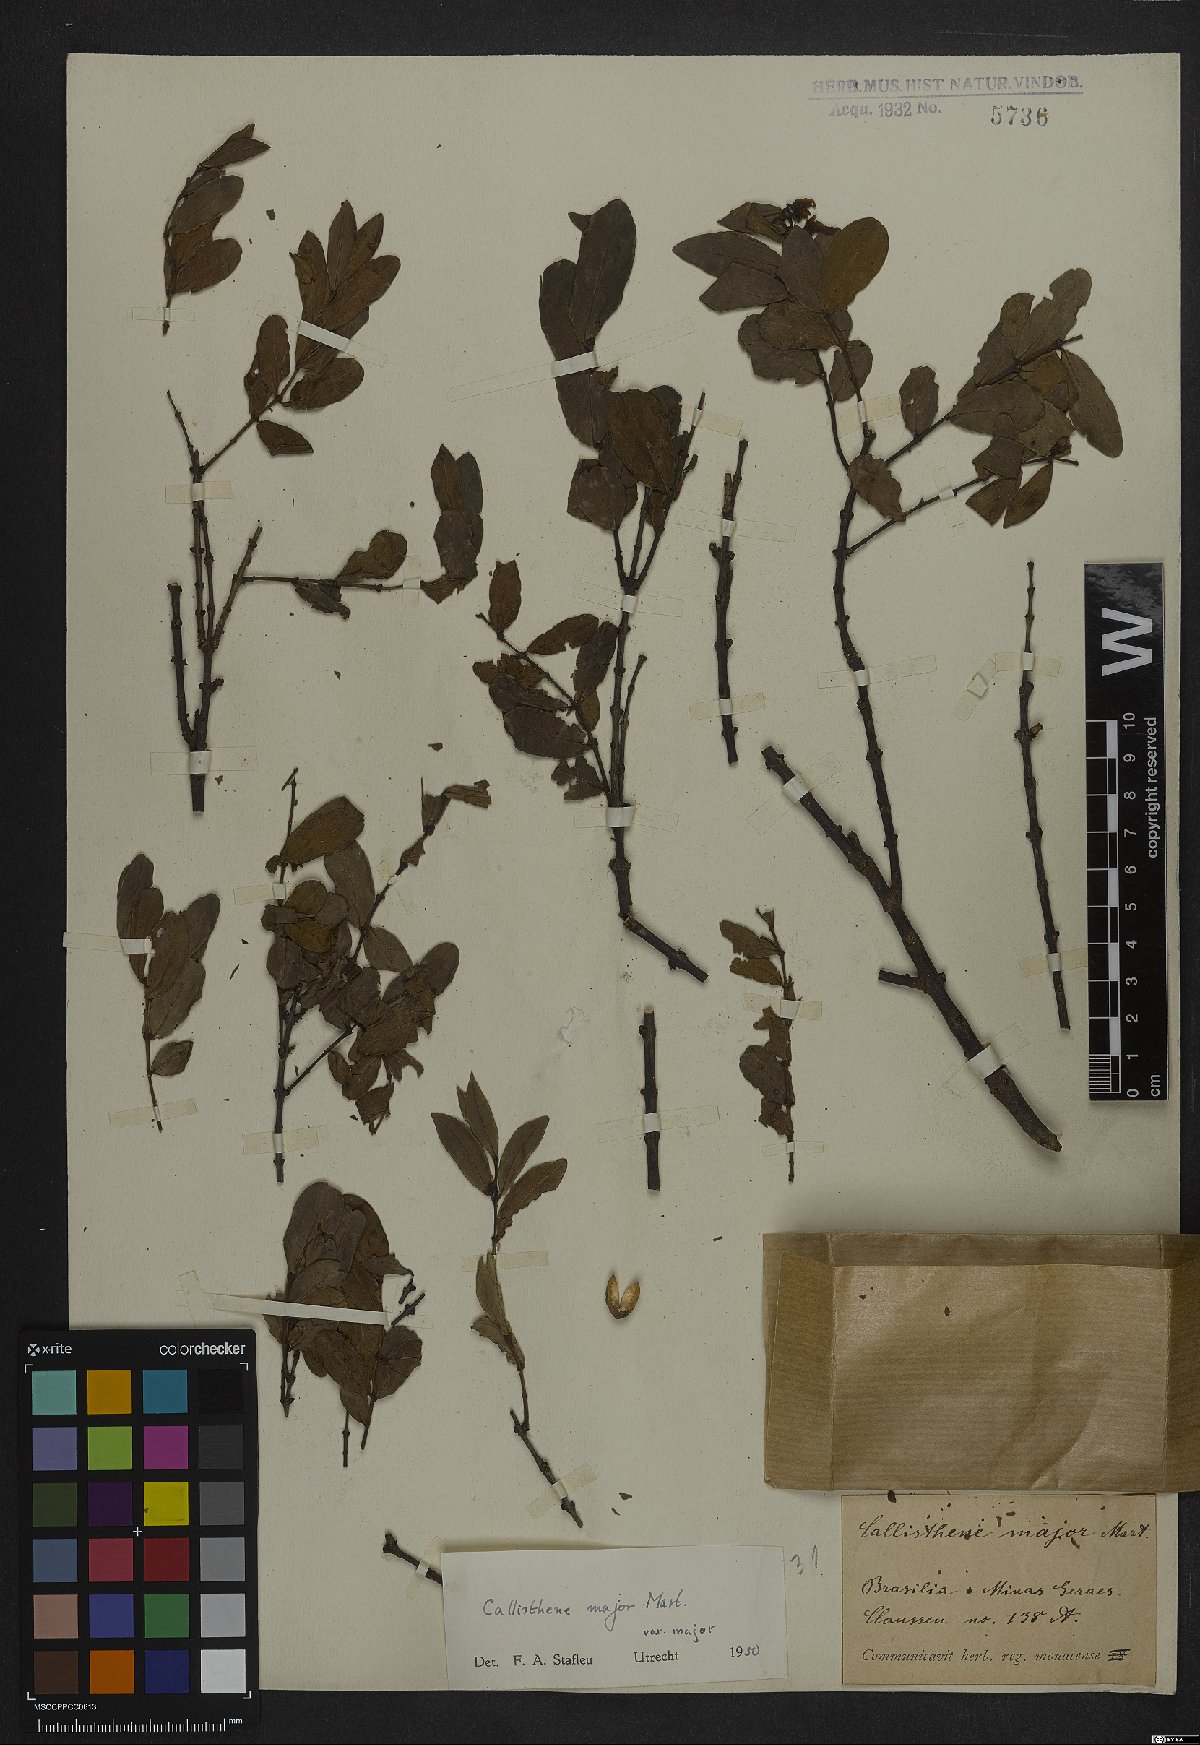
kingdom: Plantae
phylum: Tracheophyta
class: Magnoliopsida
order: Myrtales
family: Vochysiaceae
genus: Callisthene
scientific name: Callisthene major
